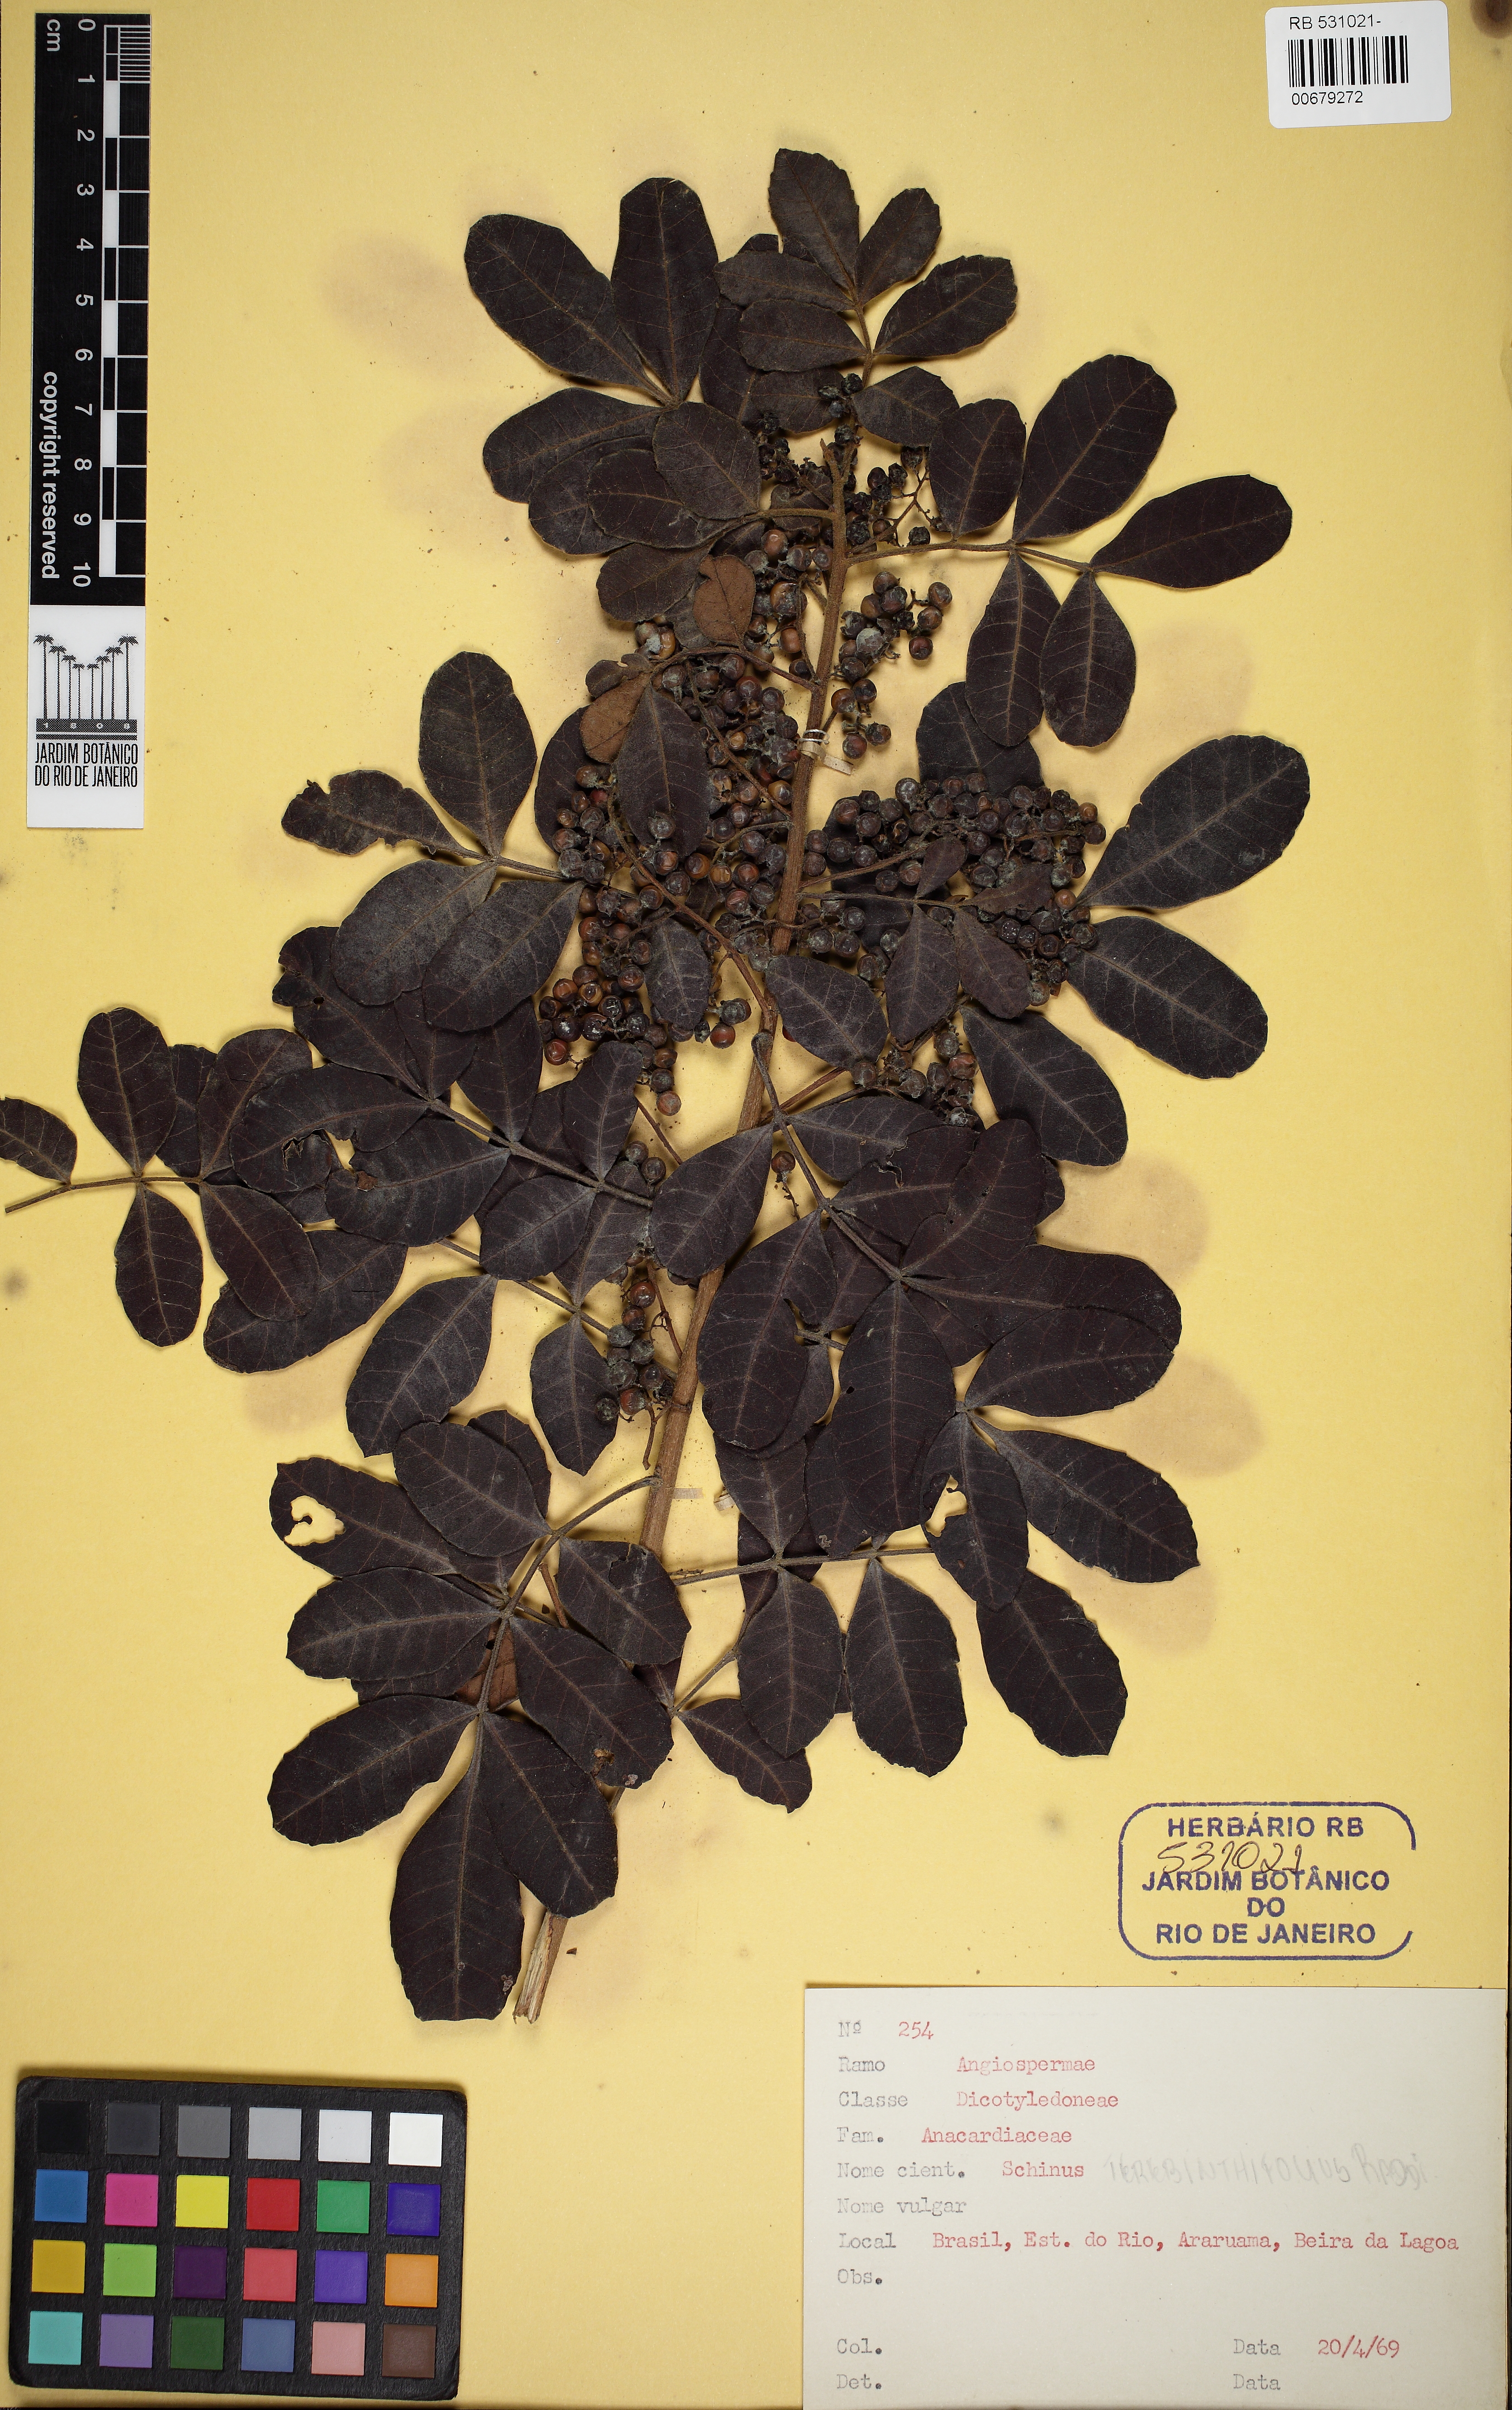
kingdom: Plantae
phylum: Tracheophyta
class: Magnoliopsida
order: Sapindales
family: Anacardiaceae
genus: Schinus
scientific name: Schinus terebinthifolia
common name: Brazilian peppertree
